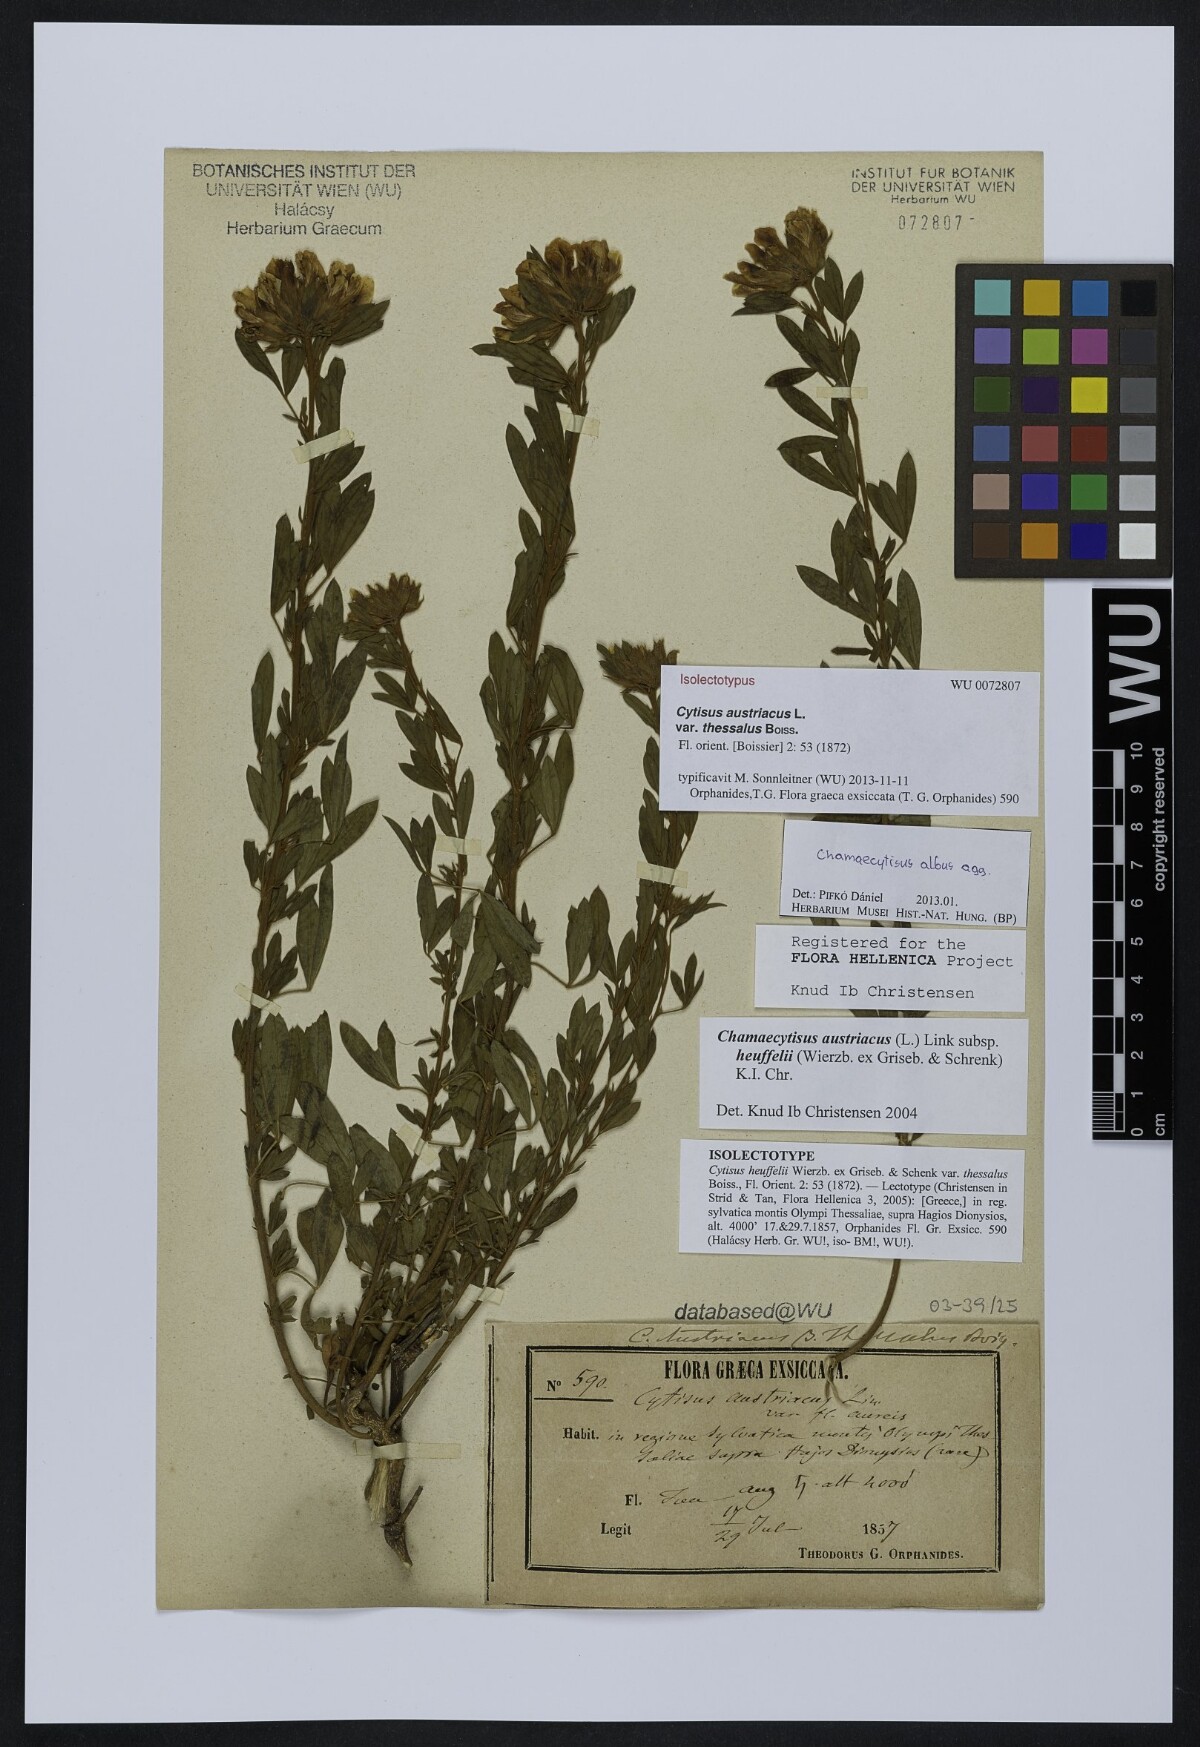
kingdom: Plantae
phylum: Tracheophyta
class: Magnoliopsida
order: Fabales
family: Fabaceae
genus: Chamaecytisus
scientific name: Chamaecytisus austriacus
